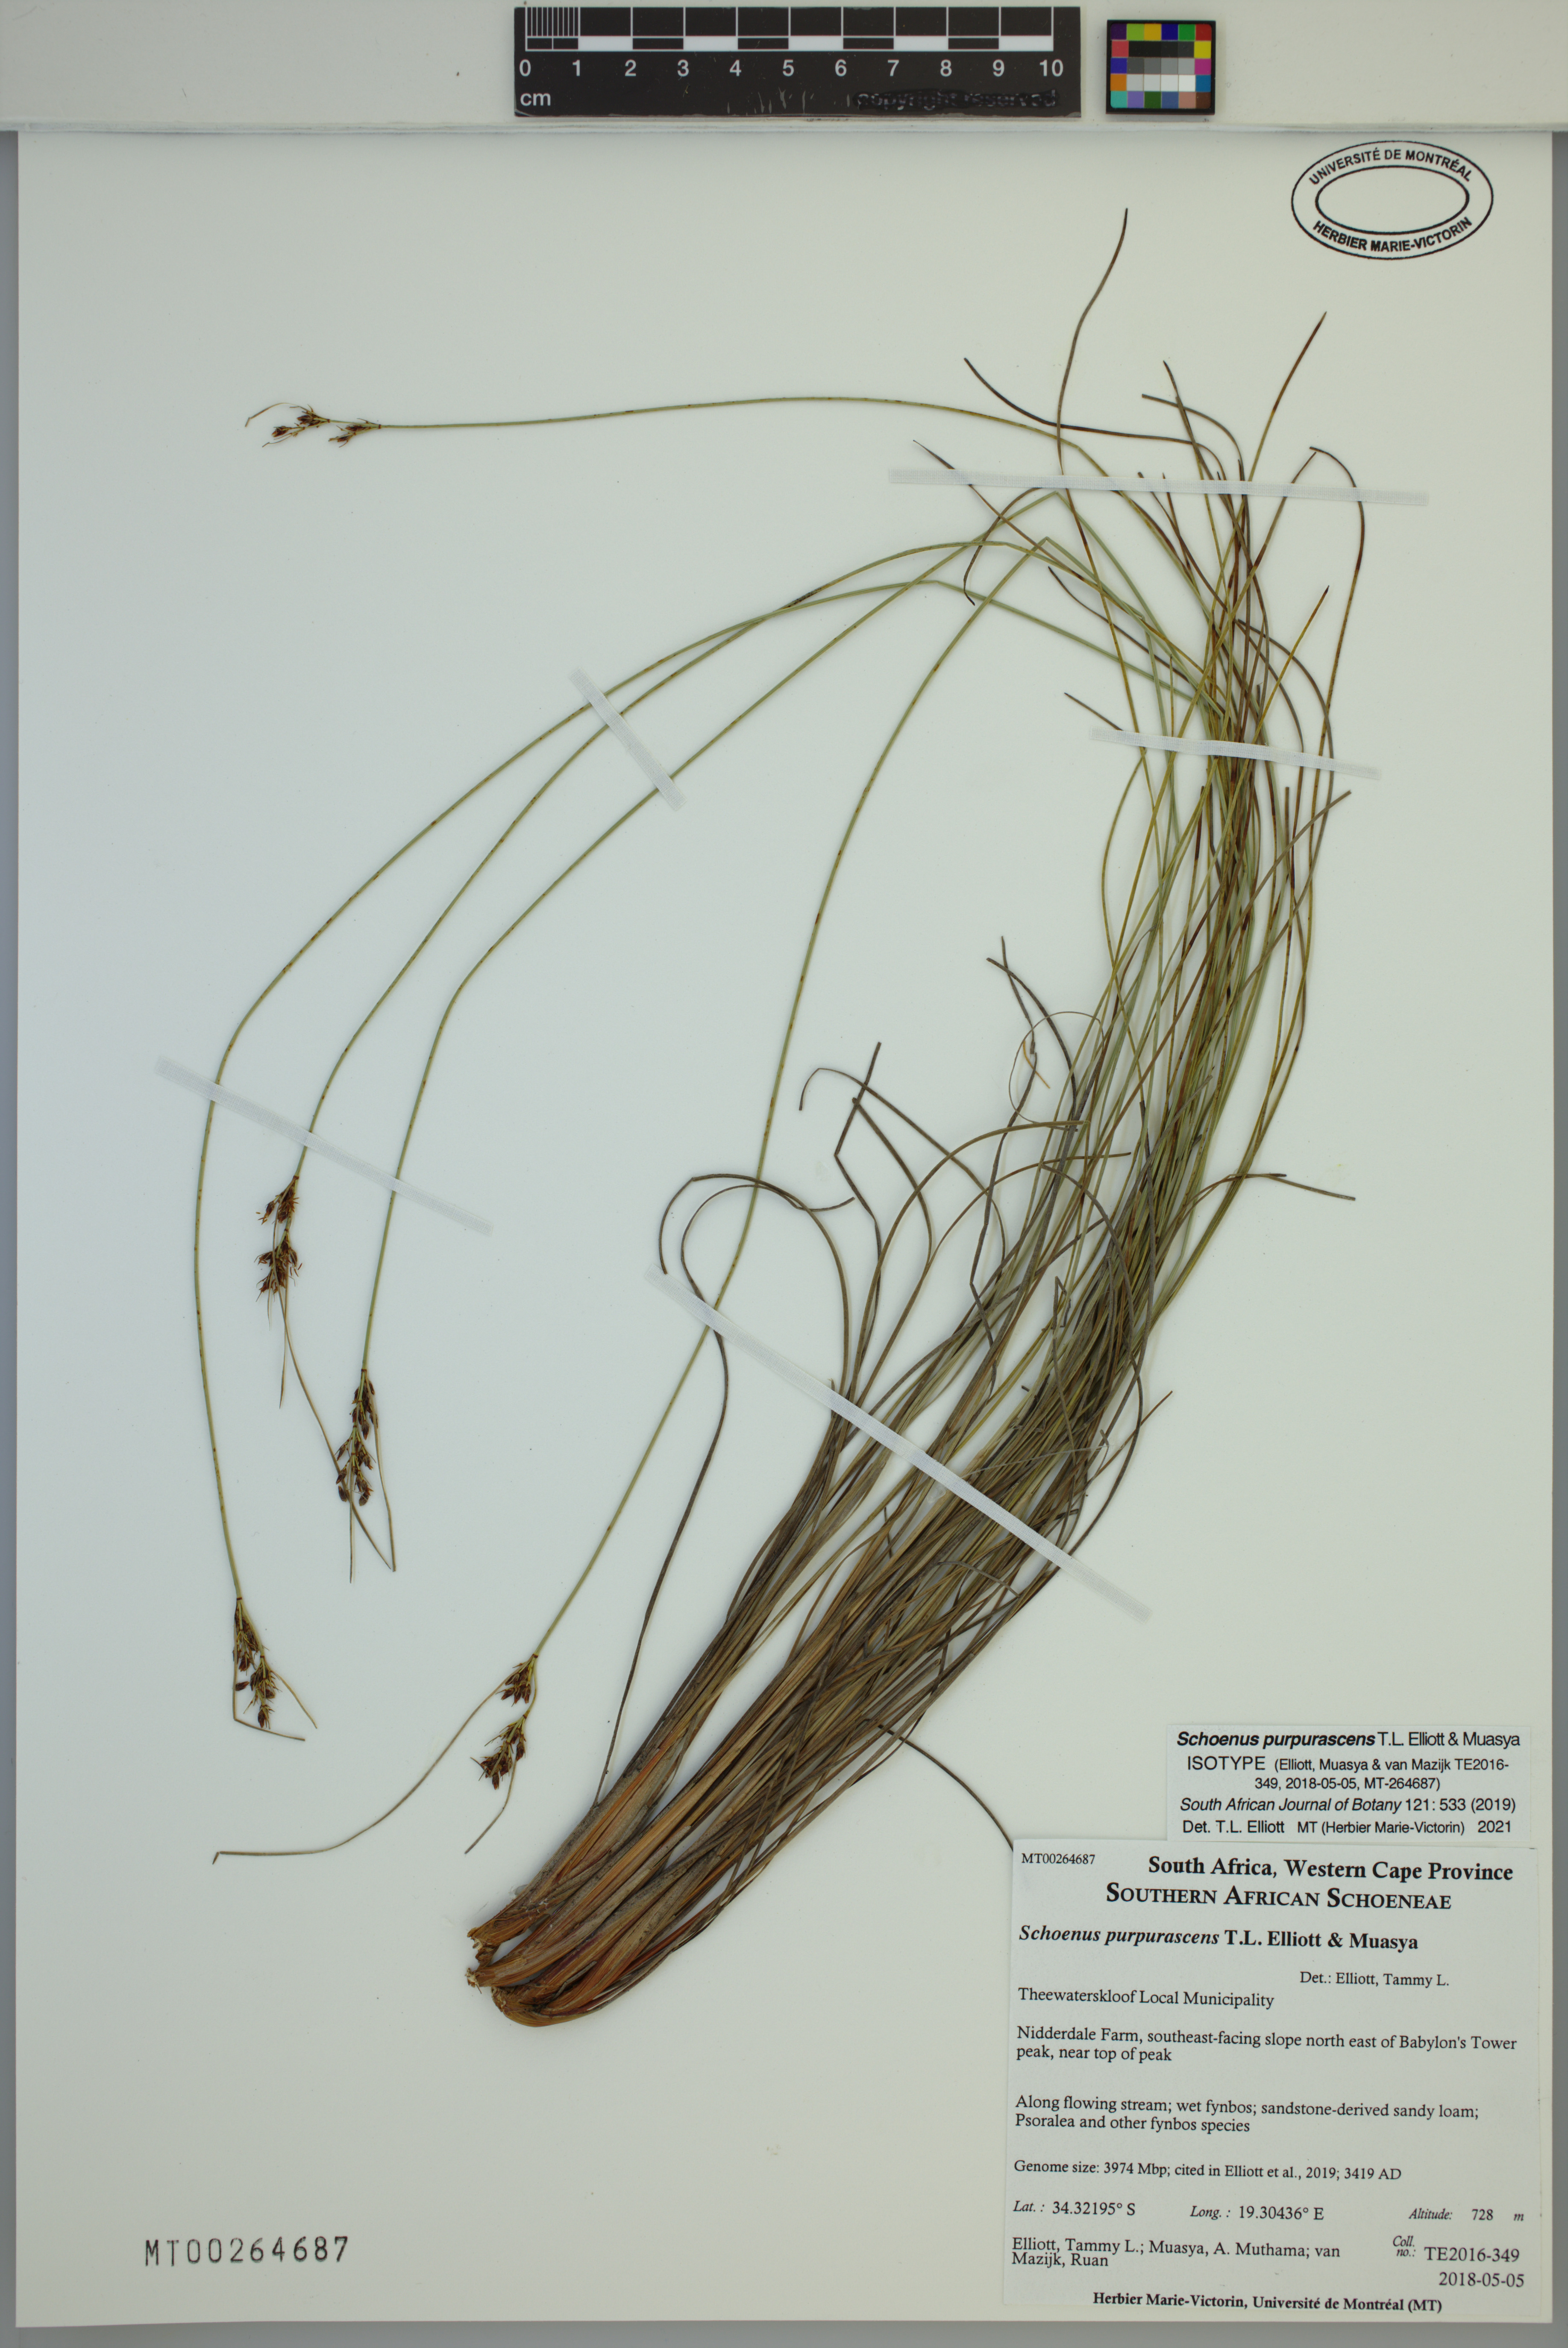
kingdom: Plantae
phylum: Tracheophyta
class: Liliopsida
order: Poales
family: Cyperaceae
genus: Schoenus
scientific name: Schoenus purpurascens
